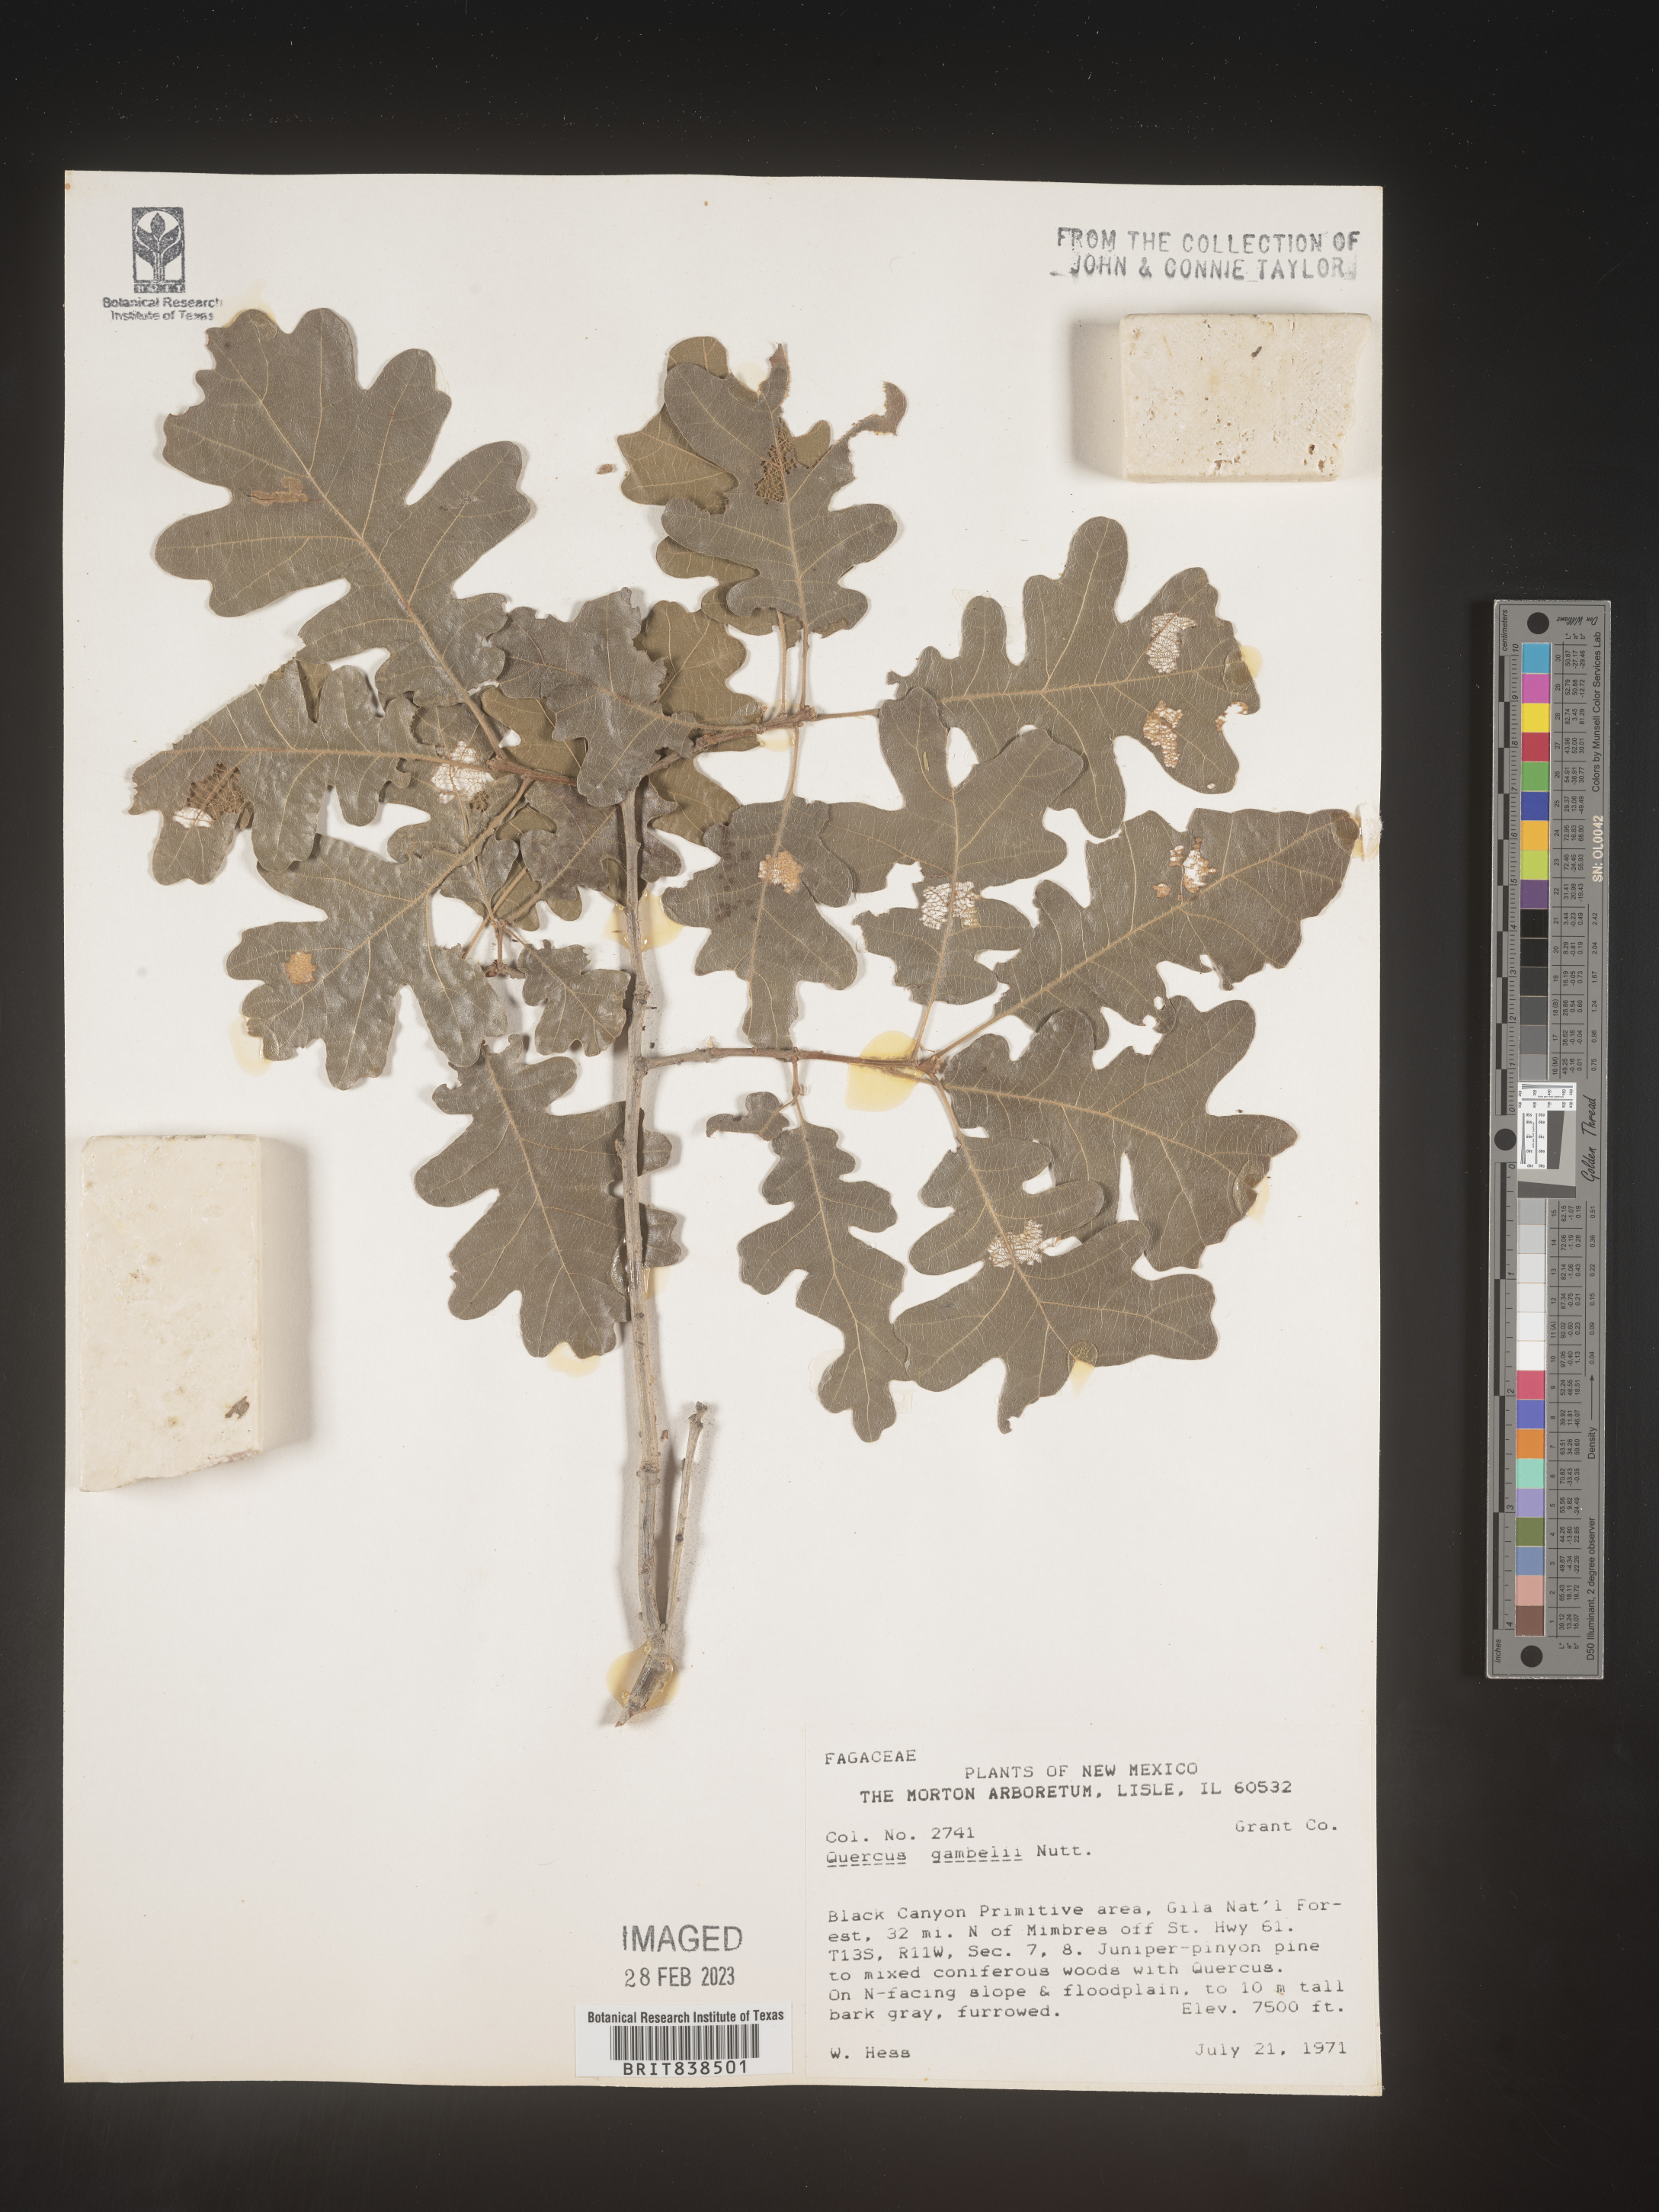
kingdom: Plantae
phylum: Tracheophyta
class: Magnoliopsida
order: Fagales
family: Fagaceae
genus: Quercus
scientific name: Quercus gambelii
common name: Gambel oak
